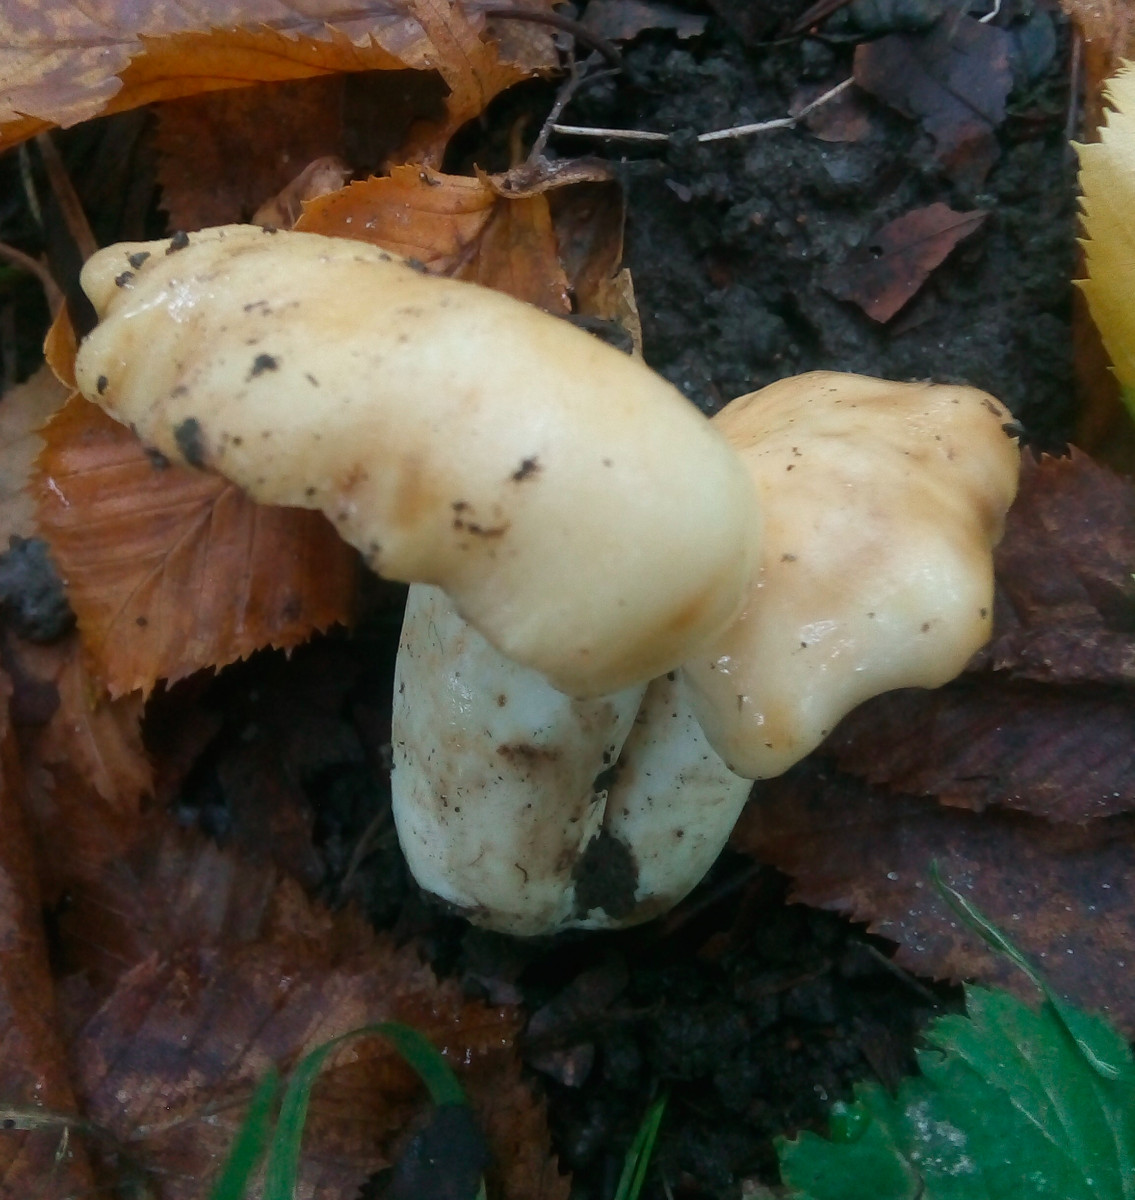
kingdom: Fungi
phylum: Basidiomycota
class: Agaricomycetes
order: Russulales
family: Russulaceae
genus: Russula
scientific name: Russula farinipes
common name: gul kam-skørhat
